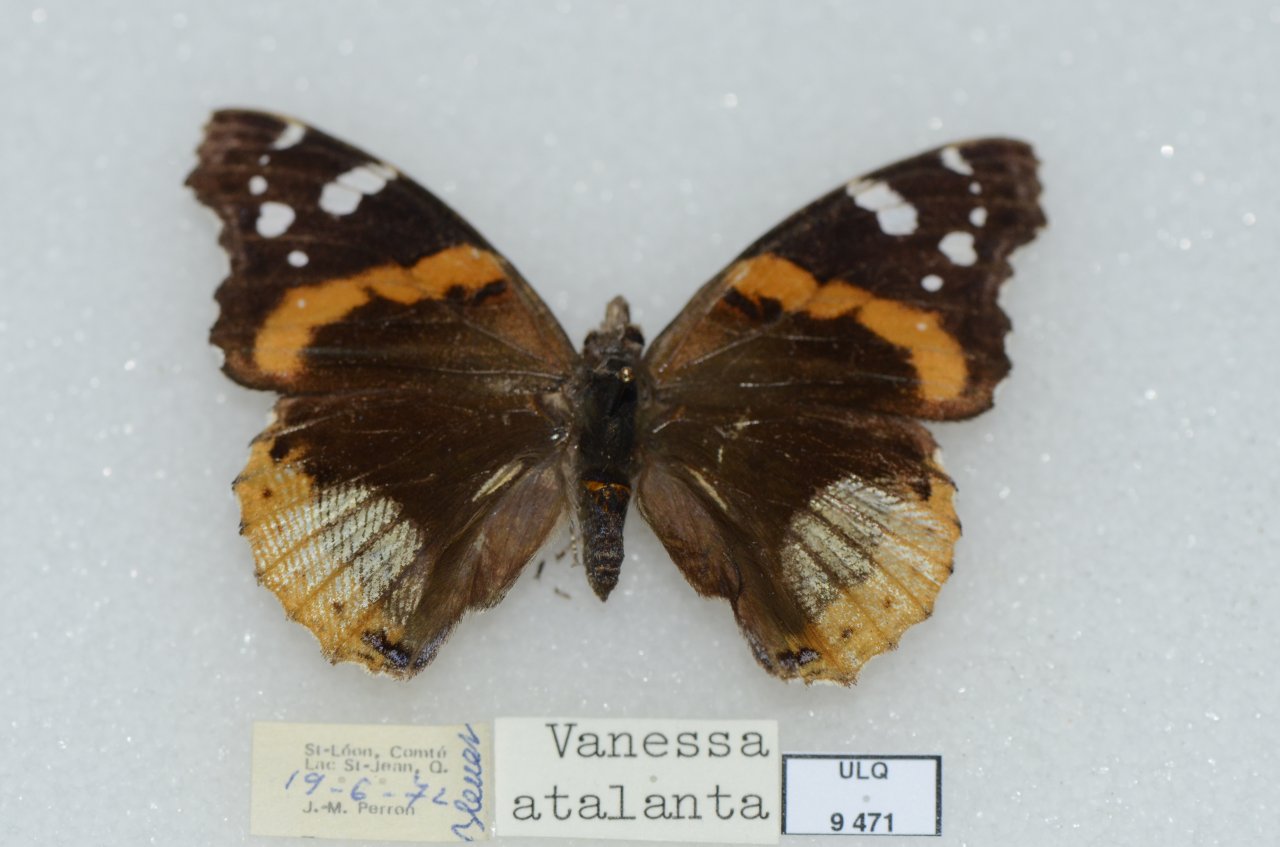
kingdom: Animalia
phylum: Arthropoda
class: Insecta
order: Lepidoptera
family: Nymphalidae
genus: Vanessa
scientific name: Vanessa atalanta
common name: Red Admiral
